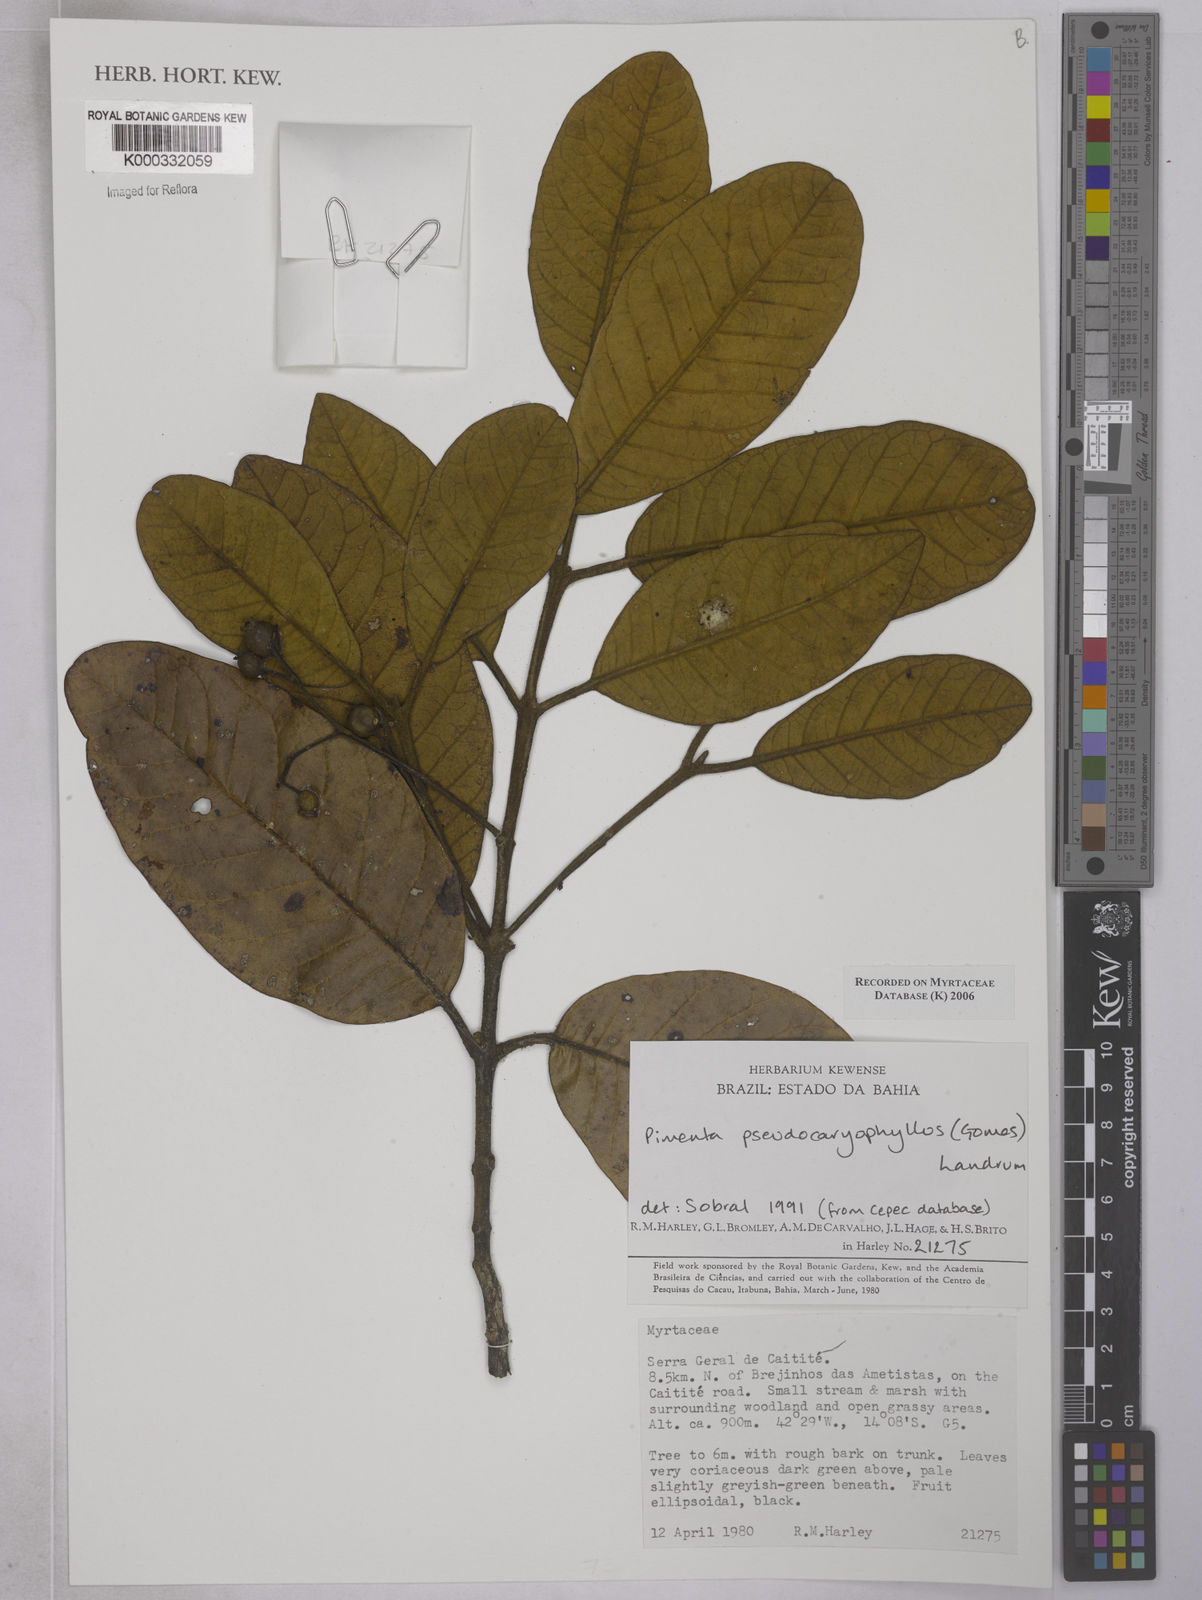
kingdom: Plantae
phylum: Tracheophyta
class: Magnoliopsida
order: Myrtales
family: Myrtaceae
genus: Myrcia
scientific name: Myrcia
